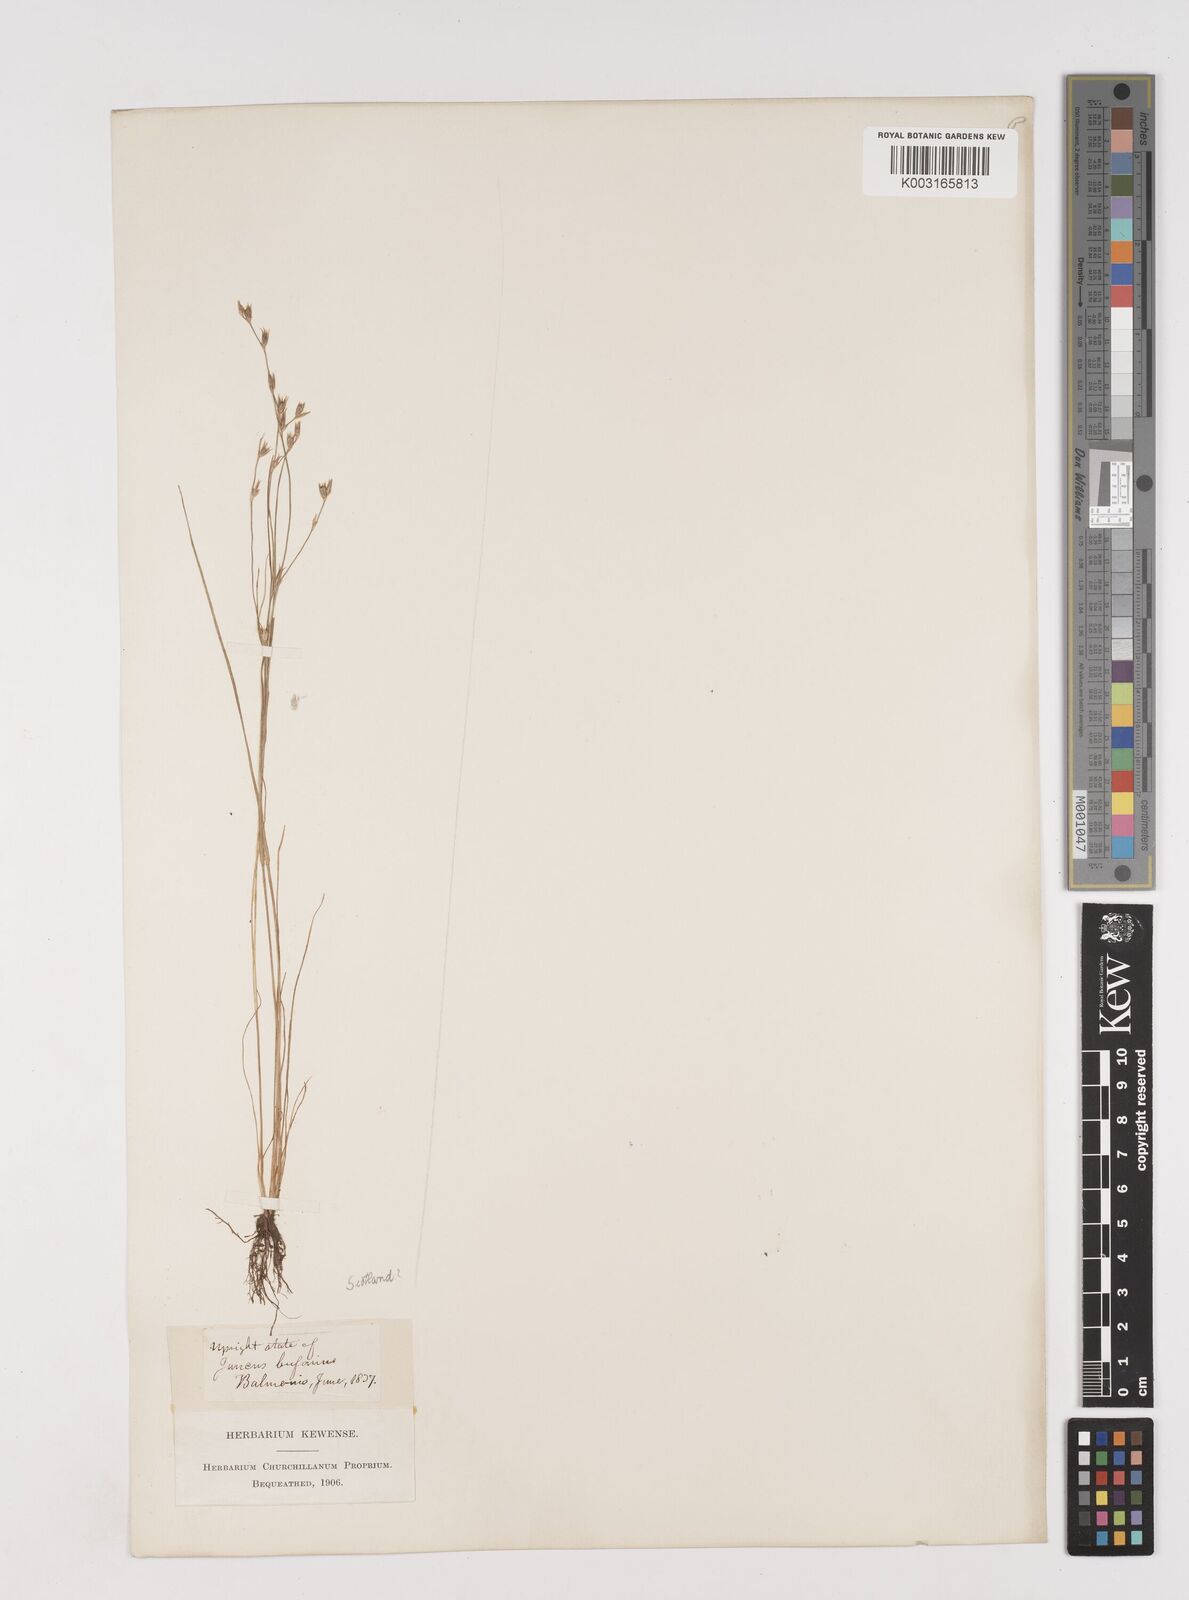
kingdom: Plantae
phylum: Tracheophyta
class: Liliopsida
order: Poales
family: Juncaceae
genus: Juncus
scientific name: Juncus bufonius
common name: Toad rush
